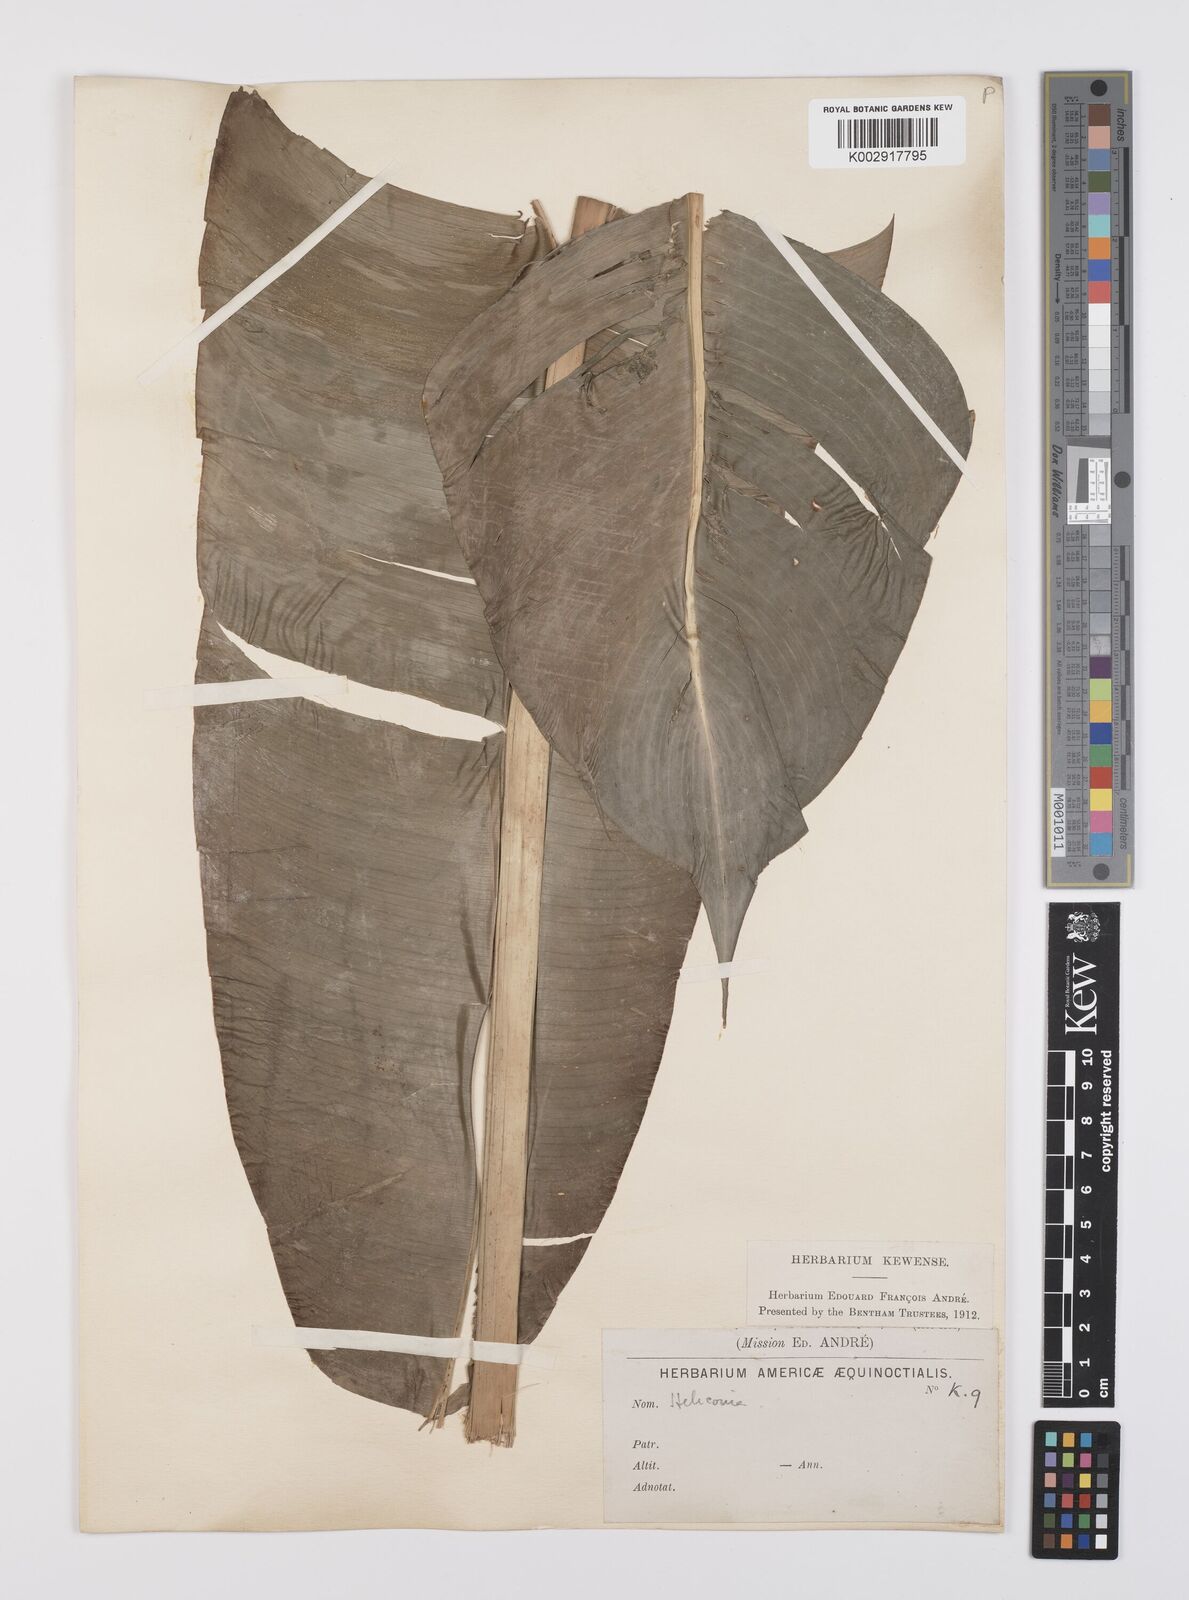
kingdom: Plantae
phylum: Tracheophyta
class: Liliopsida
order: Zingiberales
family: Heliconiaceae
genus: Heliconia
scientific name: Heliconia
